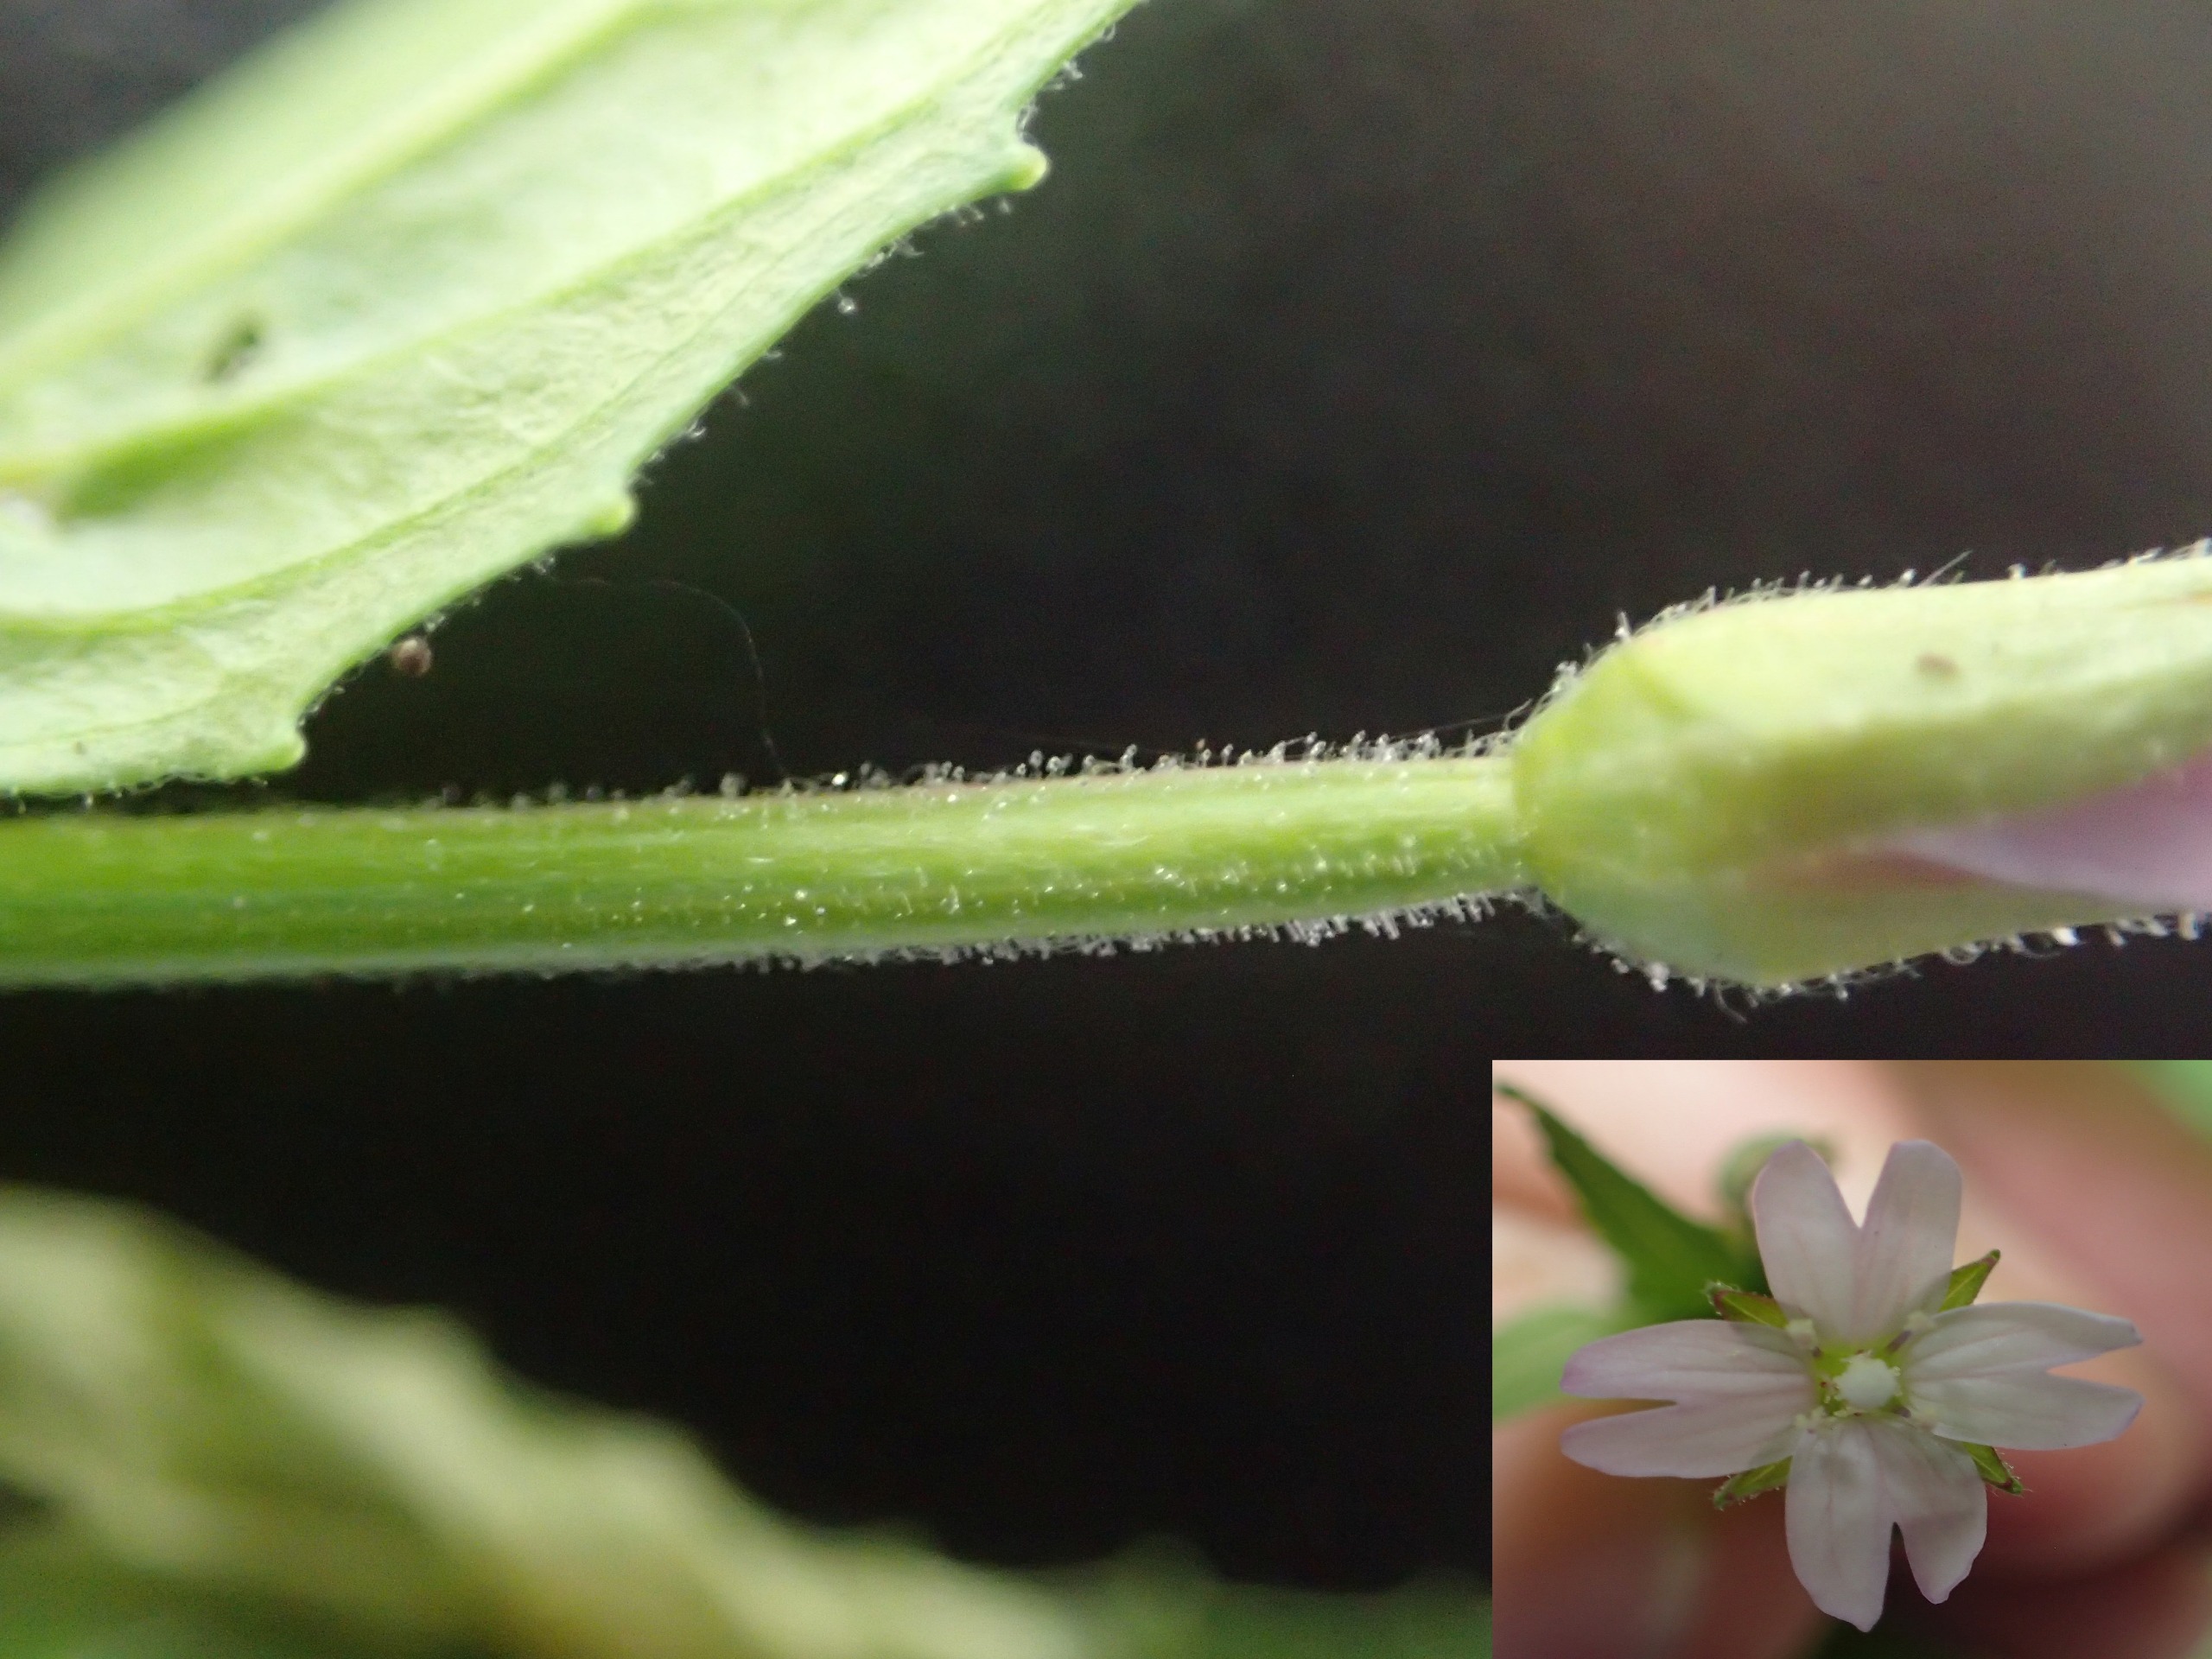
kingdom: Plantae
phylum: Tracheophyta
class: Magnoliopsida
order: Myrtales
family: Onagraceae
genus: Epilobium
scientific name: Epilobium ciliatum
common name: Kirtlet dueurt
